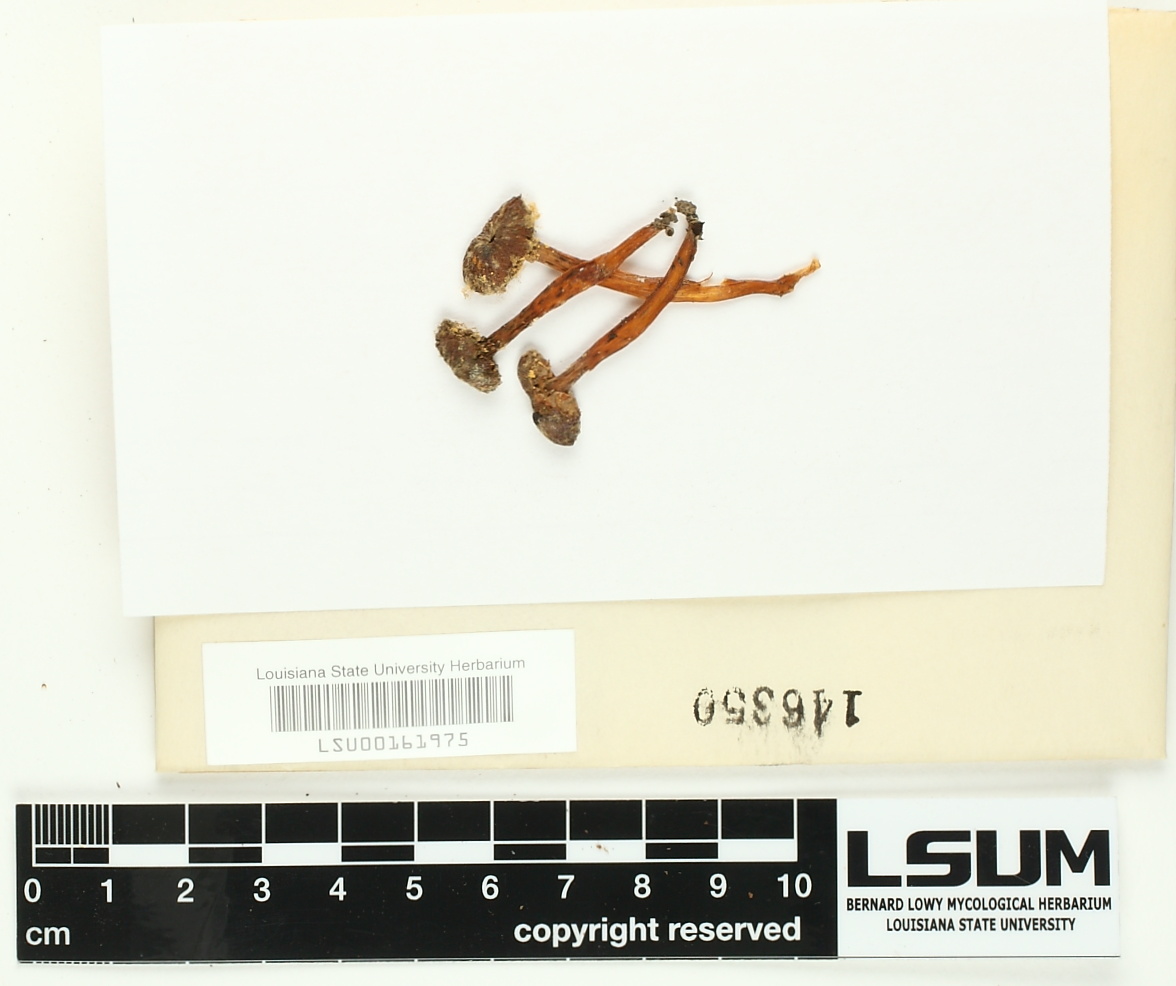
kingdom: Fungi
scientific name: Fungi
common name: Fungi
